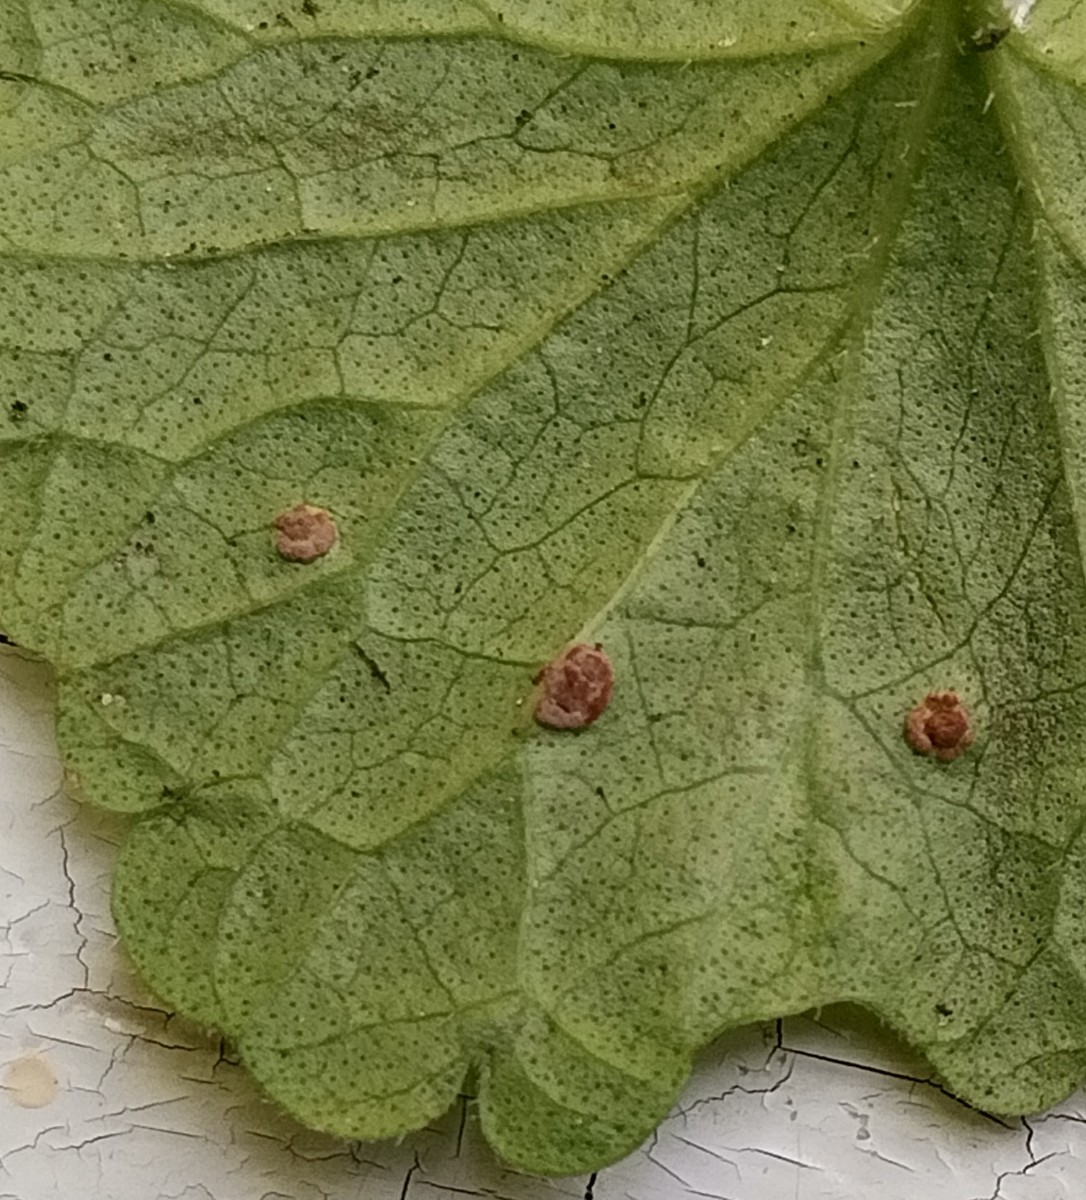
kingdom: Fungi
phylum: Basidiomycota
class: Pucciniomycetes
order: Pucciniales
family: Pucciniaceae
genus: Puccinia
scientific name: Puccinia glechomatis
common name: Ground ivy rust
